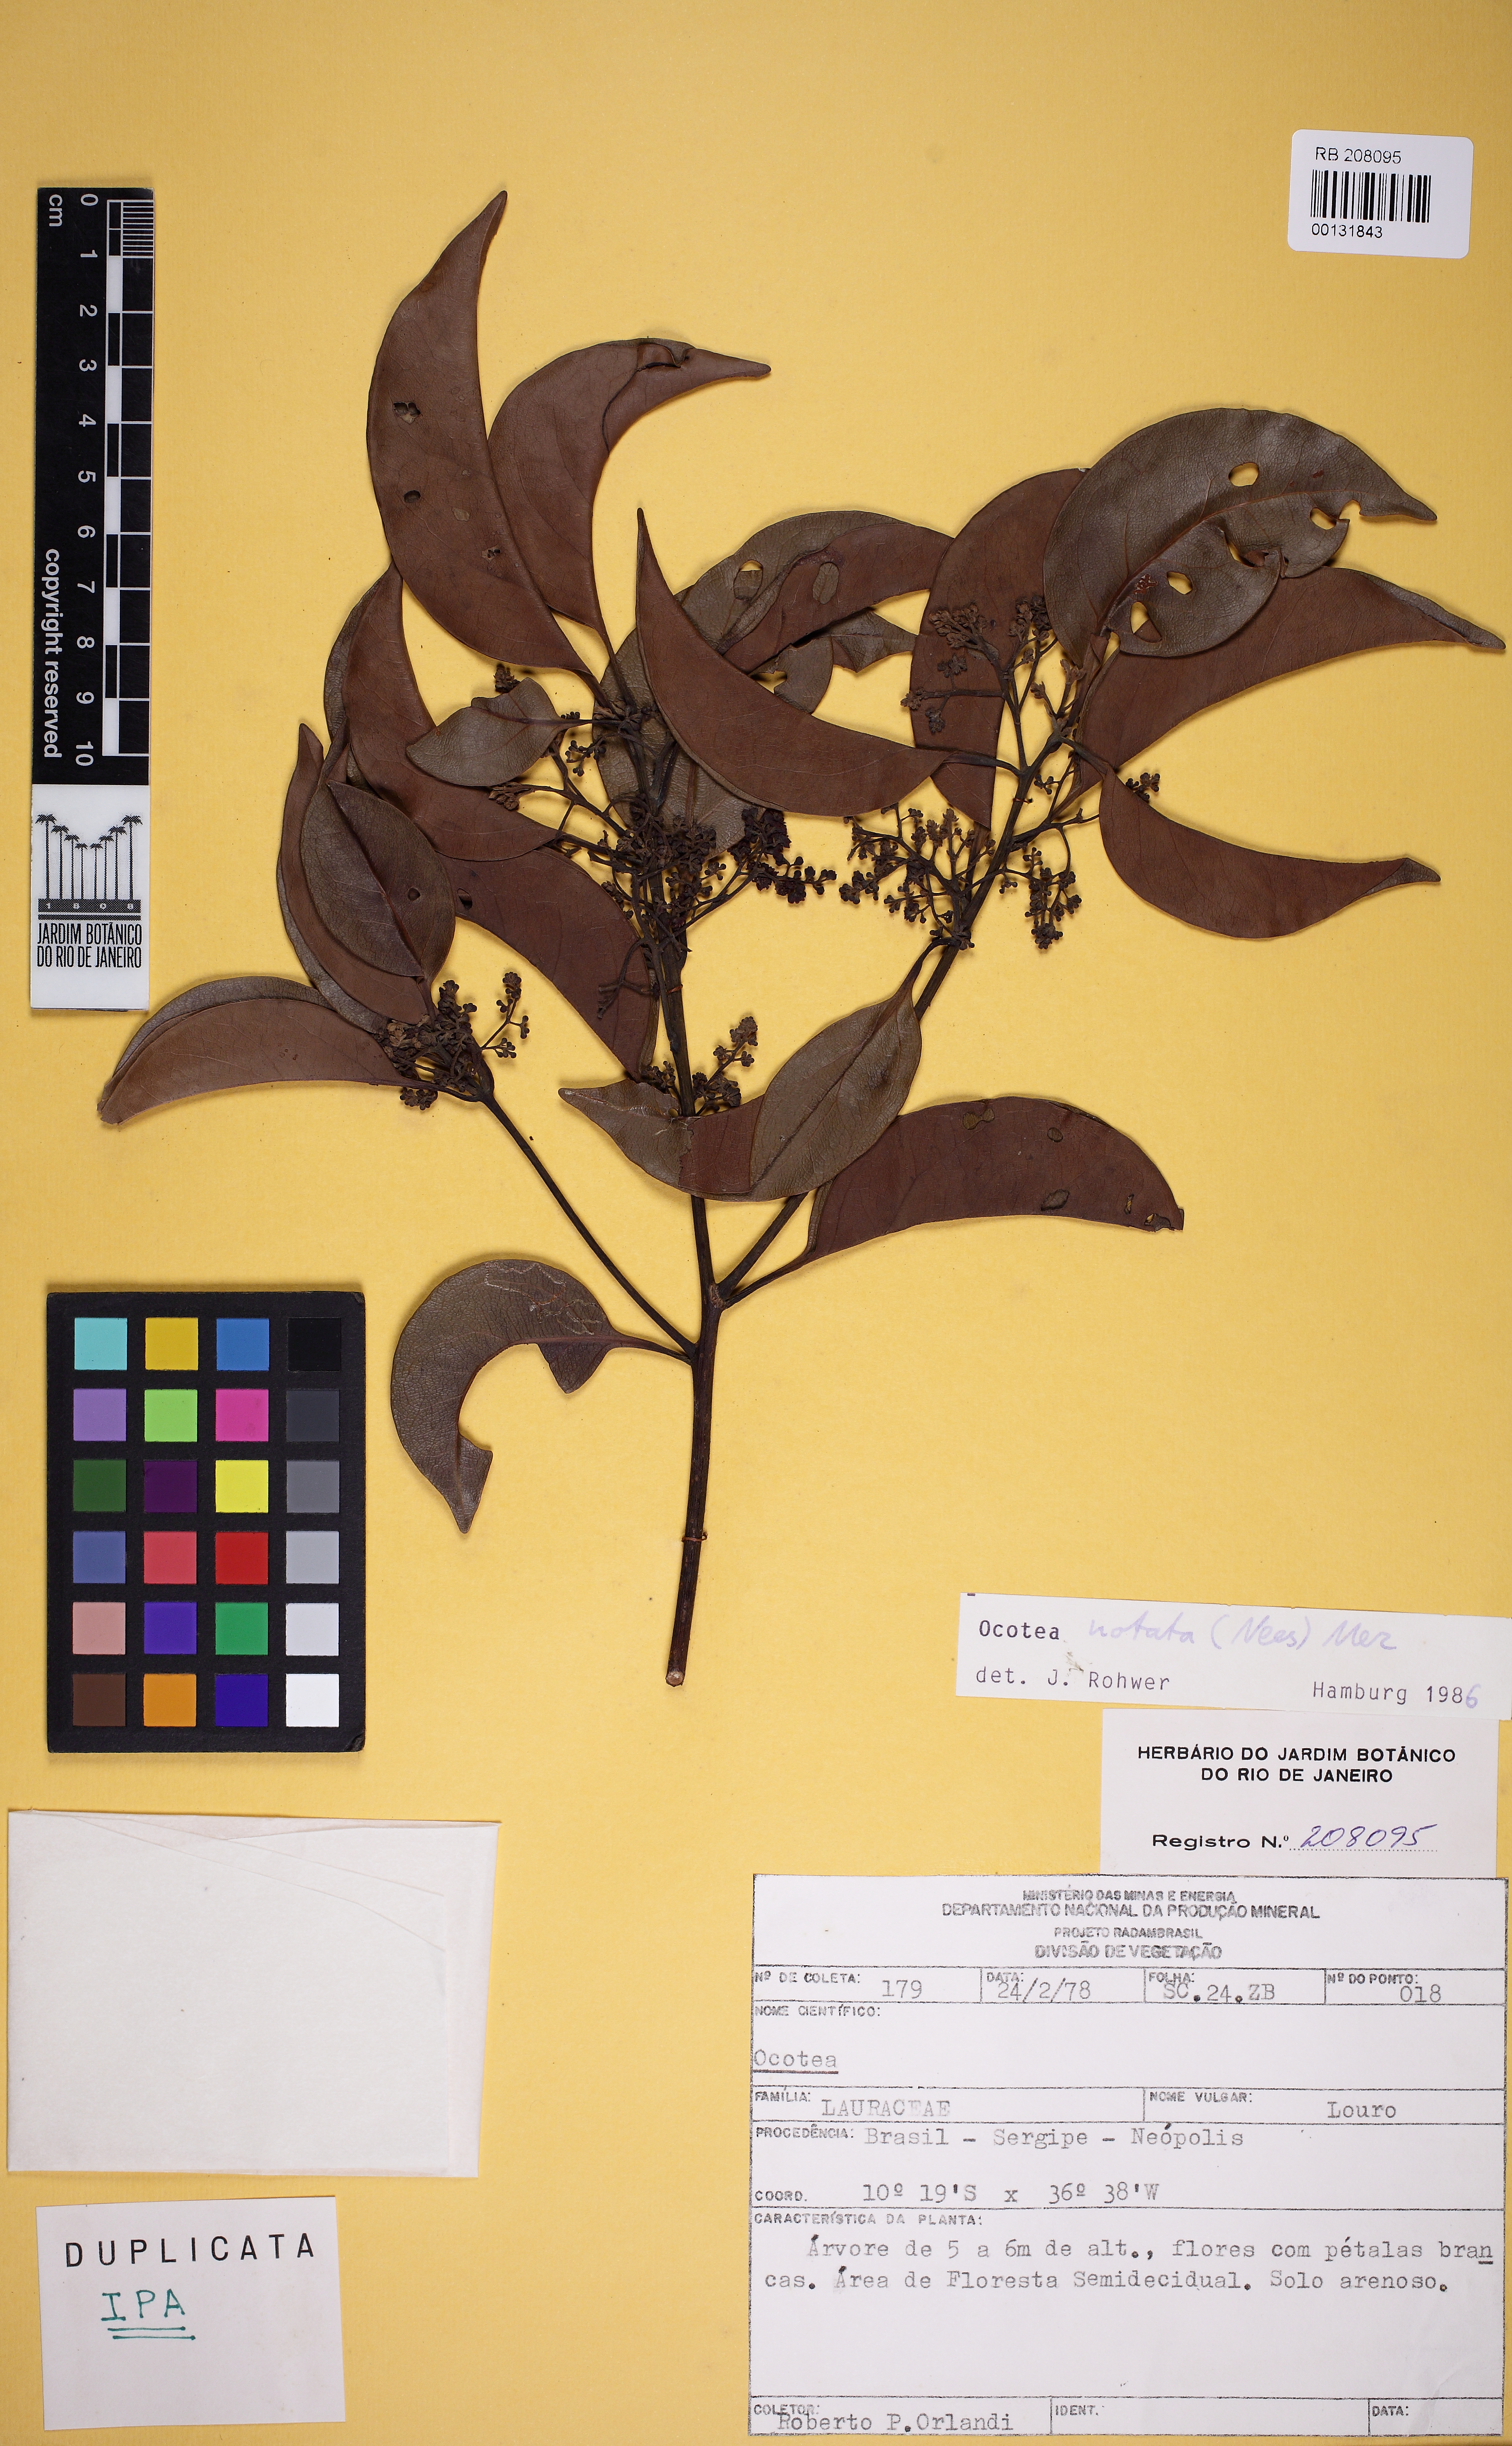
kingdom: Plantae
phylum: Tracheophyta
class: Magnoliopsida
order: Laurales
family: Lauraceae
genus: Mespilodaphne
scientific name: Mespilodaphne notata
